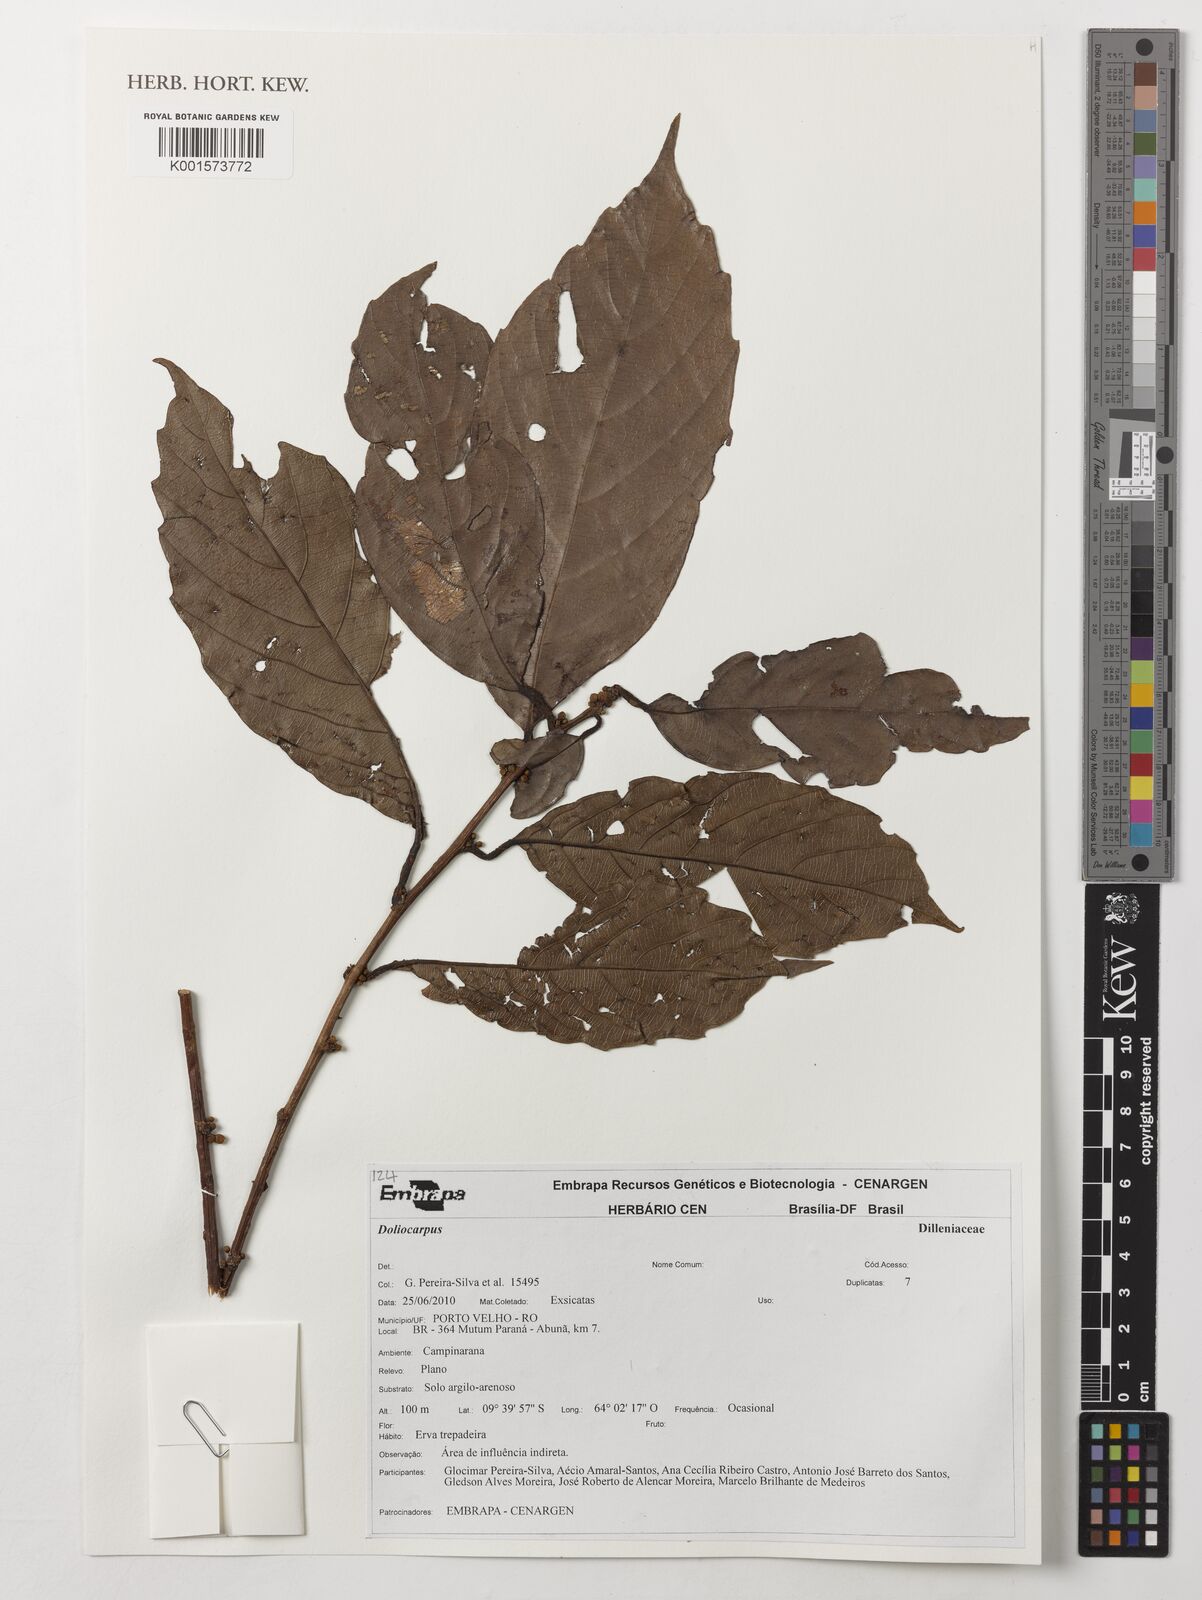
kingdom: Plantae
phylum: Tracheophyta
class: Magnoliopsida
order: Dilleniales
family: Dilleniaceae
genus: Doliocarpus
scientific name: Doliocarpus
